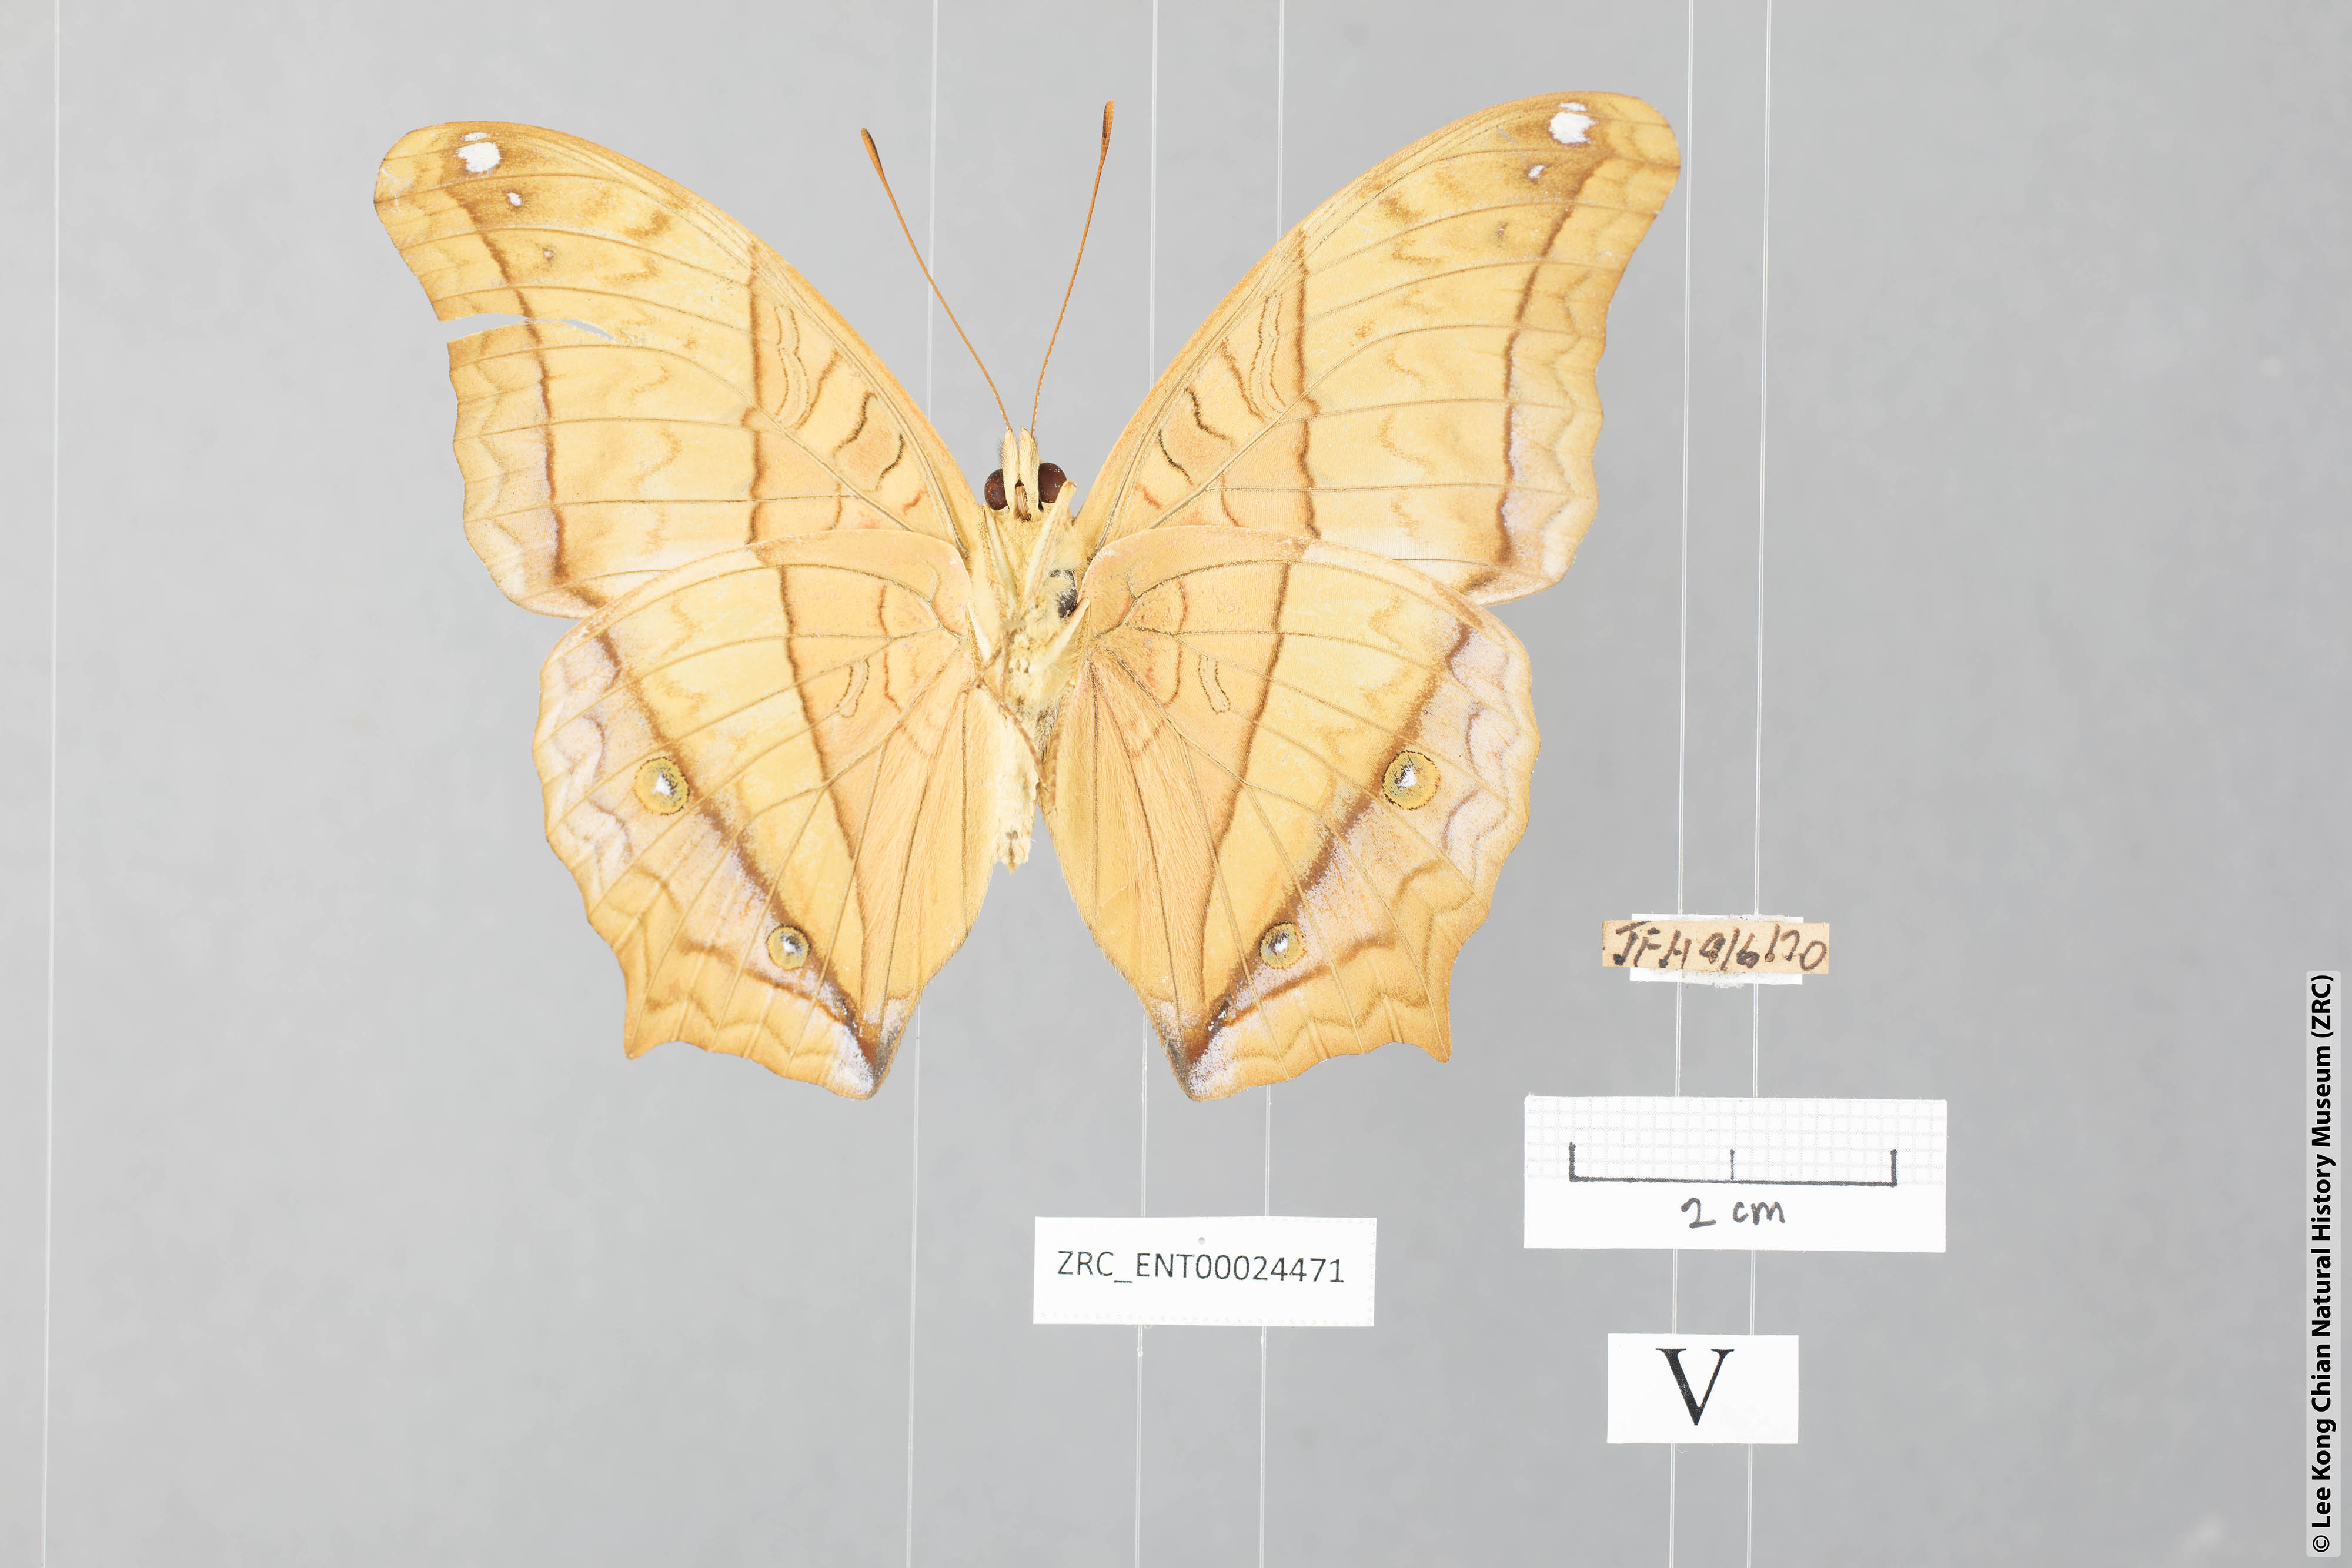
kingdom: Animalia
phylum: Arthropoda
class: Insecta
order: Lepidoptera
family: Nymphalidae
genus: Vindula
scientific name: Vindula erota
